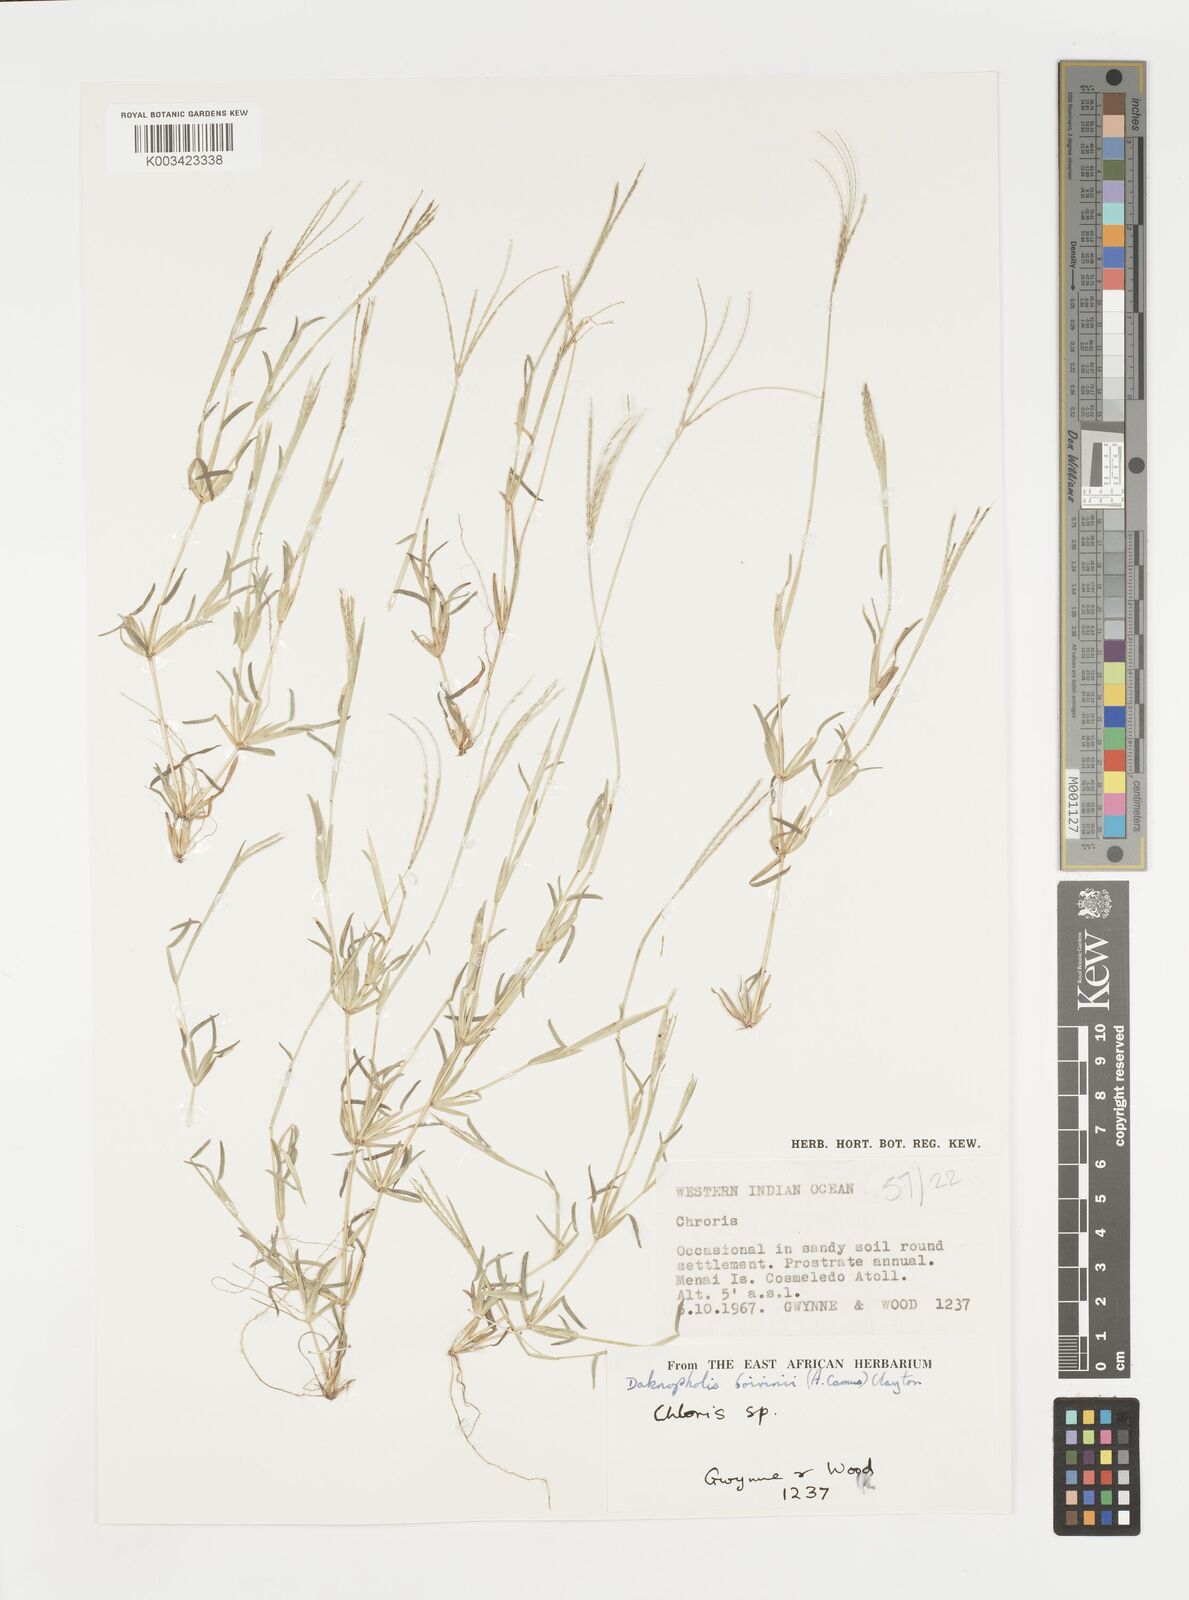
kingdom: Plantae
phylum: Tracheophyta
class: Liliopsida
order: Poales
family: Poaceae
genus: Daknopholis
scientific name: Daknopholis boivinii
